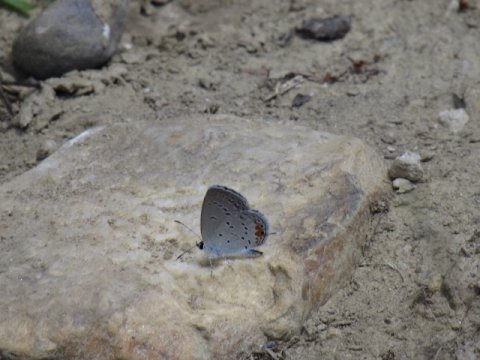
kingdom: Animalia
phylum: Arthropoda
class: Insecta
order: Lepidoptera
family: Lycaenidae
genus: Elkalyce
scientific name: Elkalyce comyntas
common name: Eastern Tailed-Blue
